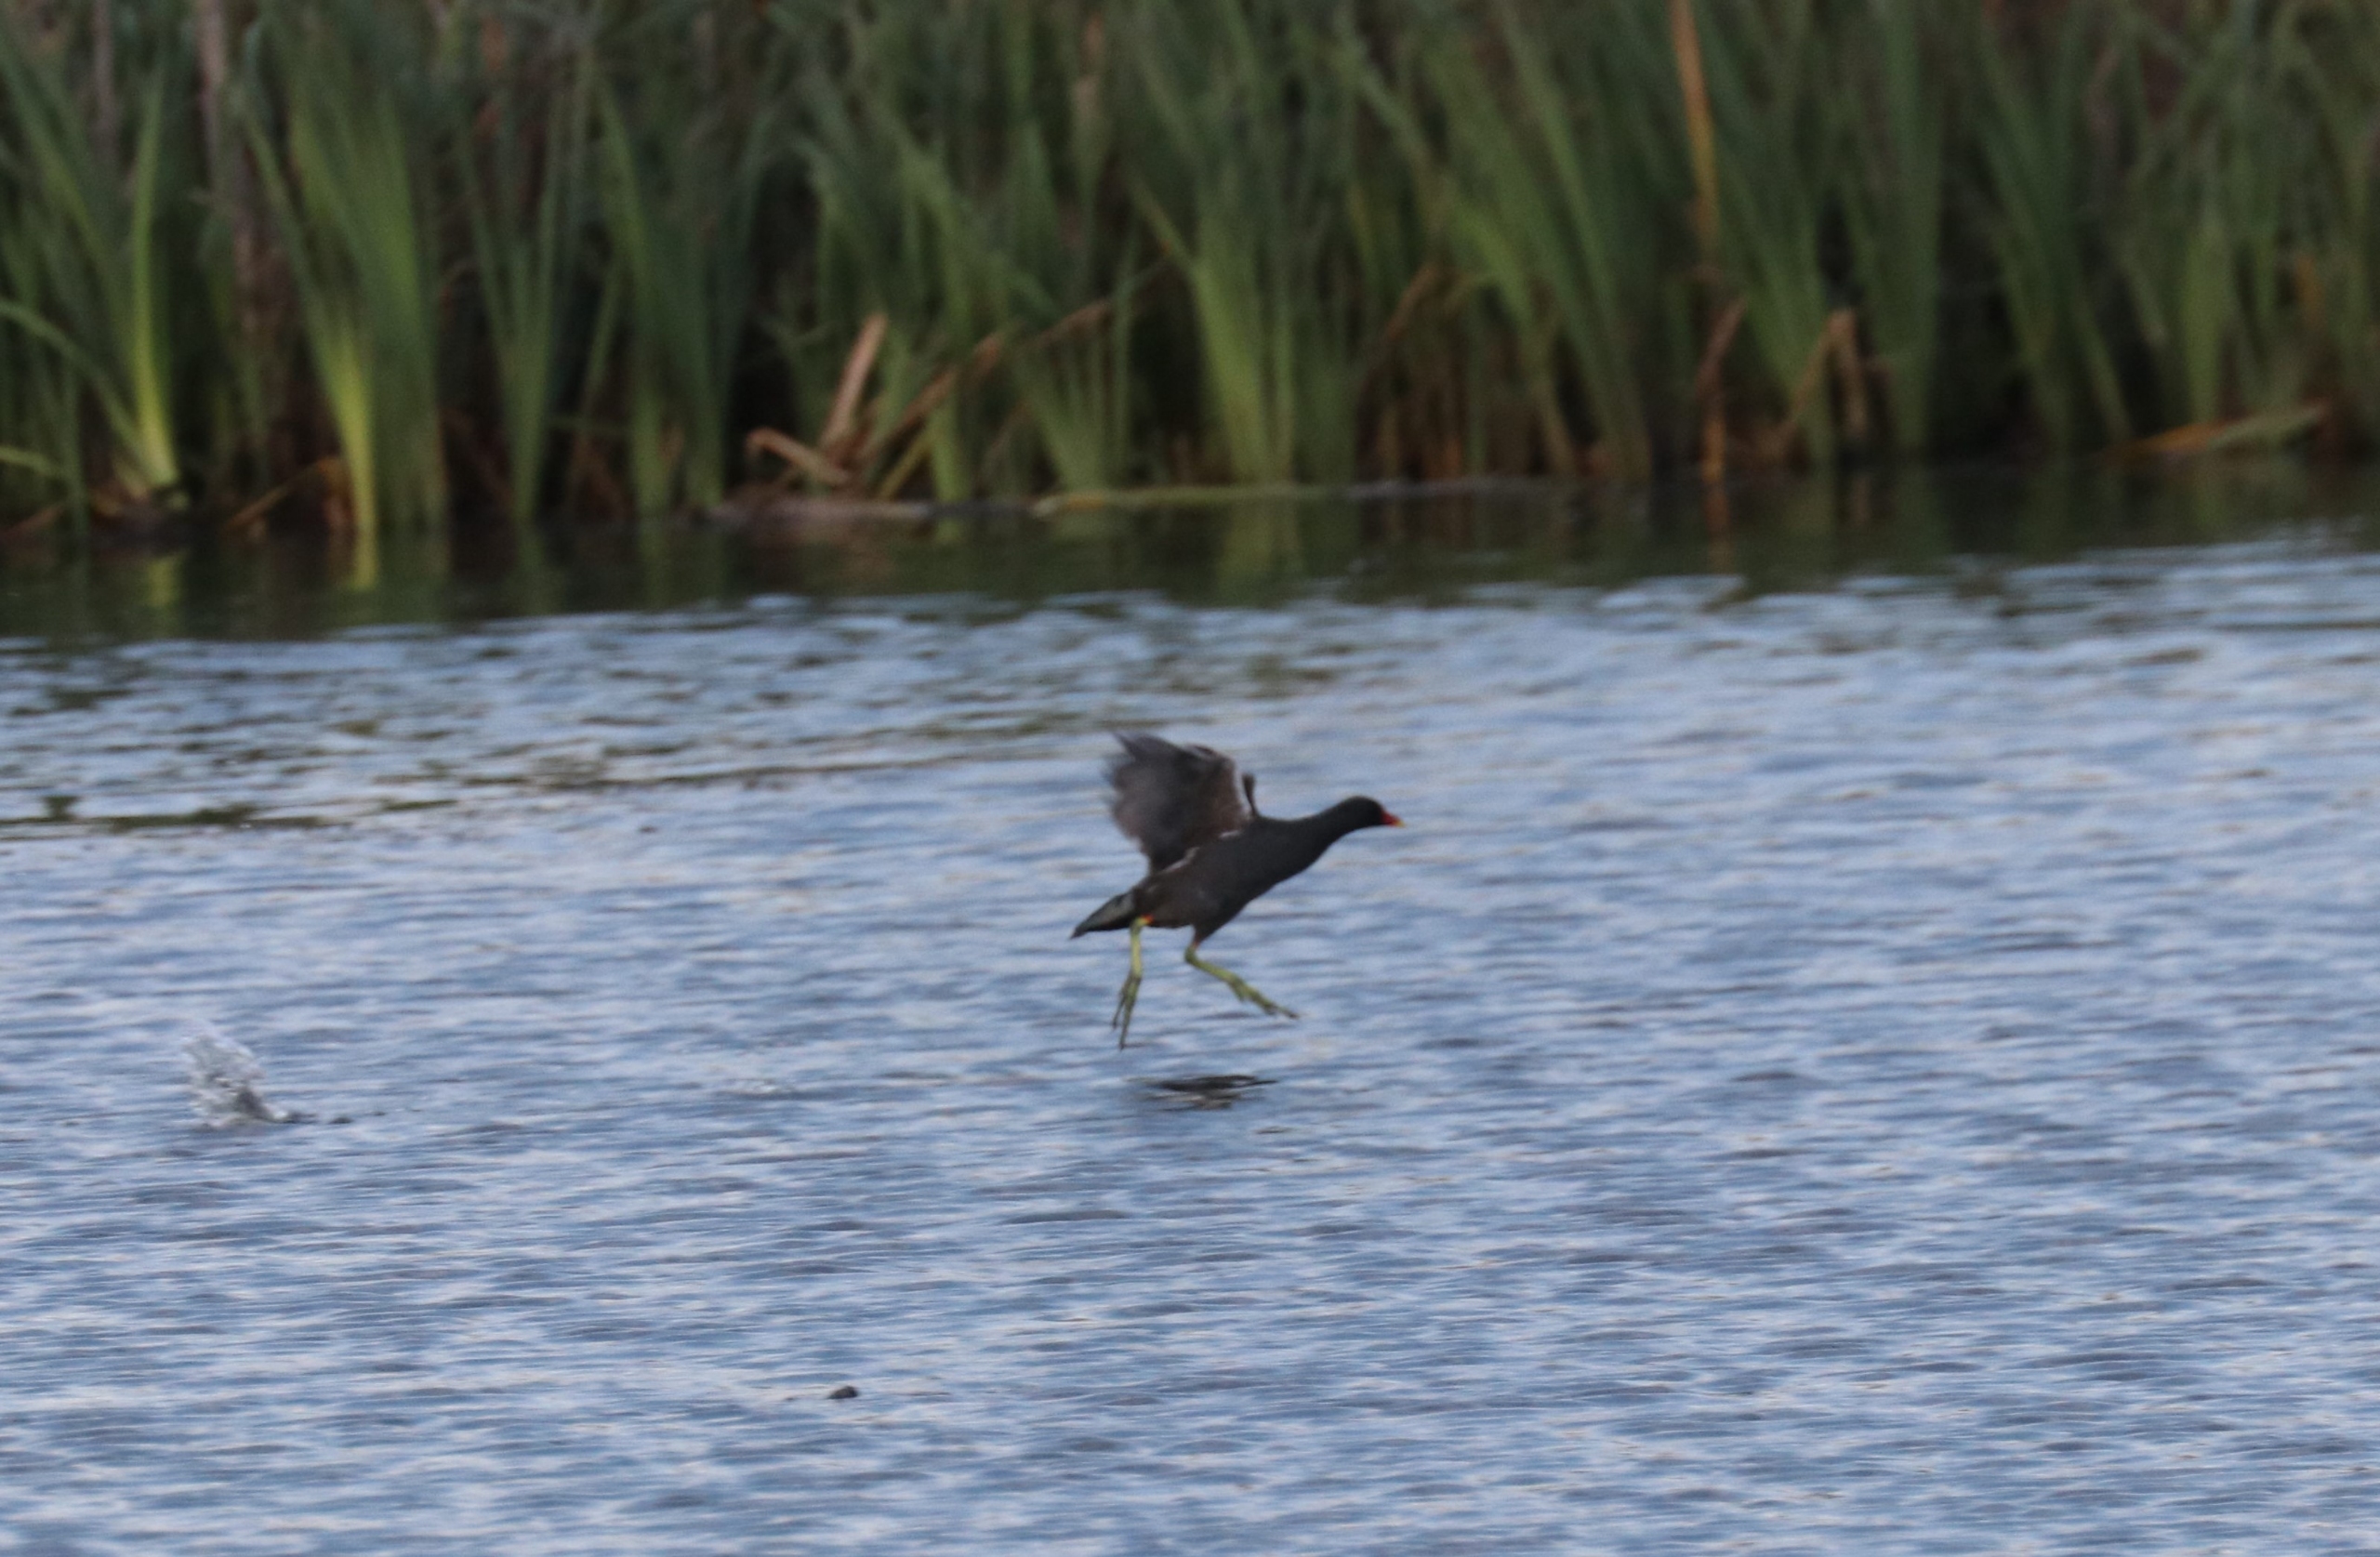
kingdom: Animalia
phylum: Chordata
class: Aves
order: Gruiformes
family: Rallidae
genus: Gallinula
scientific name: Gallinula chloropus
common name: Grønbenet rørhøne
